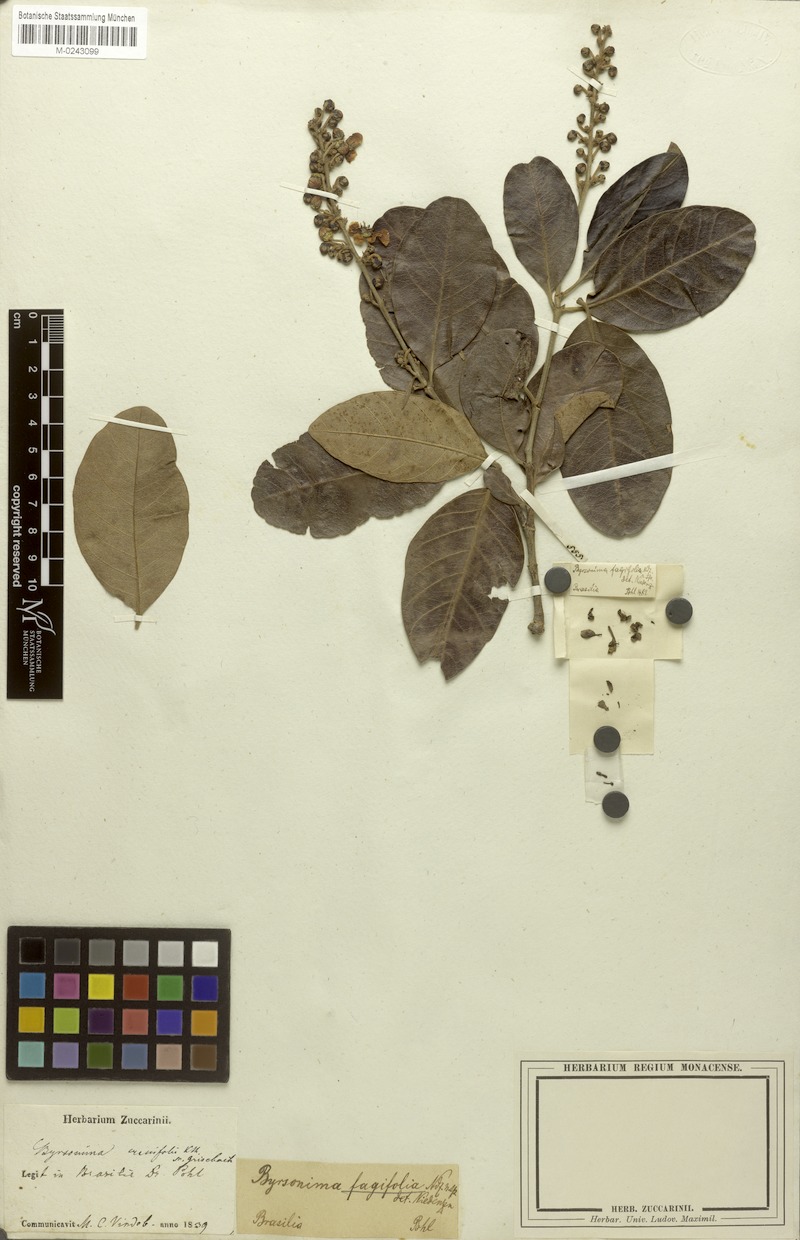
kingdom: Plantae
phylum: Tracheophyta
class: Magnoliopsida
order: Malpighiales
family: Malpighiaceae
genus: Byrsonima
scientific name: Byrsonima crassifolia
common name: Golden spoon
